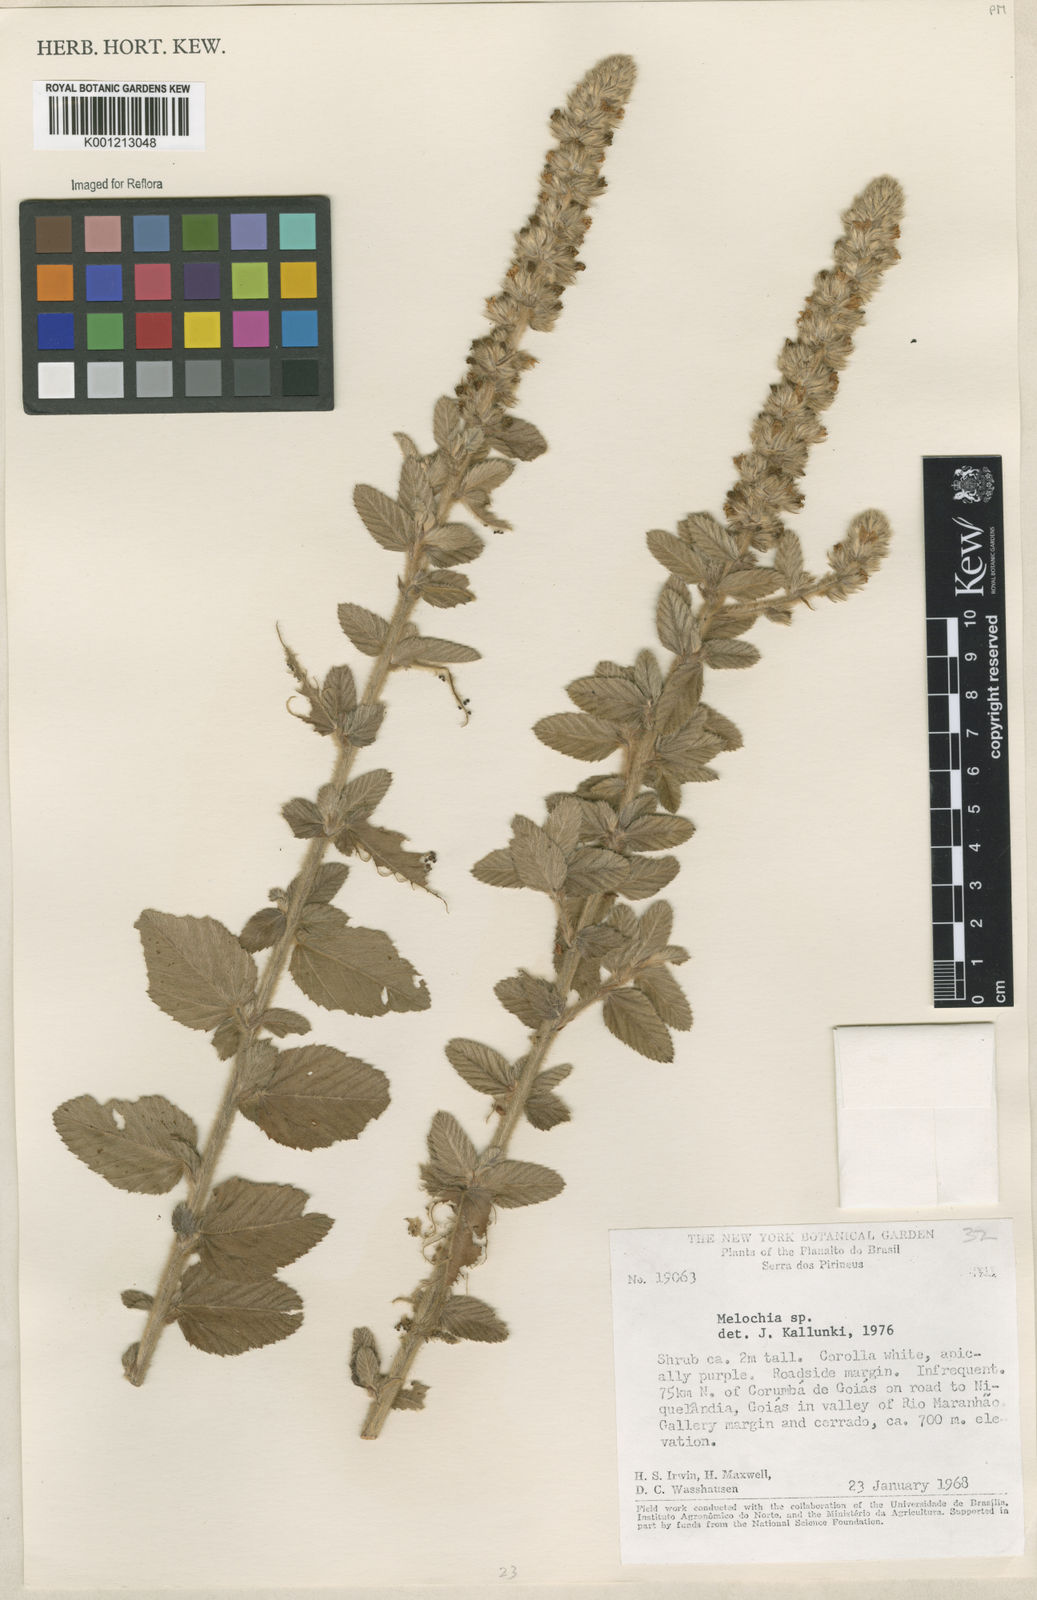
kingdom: Plantae
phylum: Tracheophyta
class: Magnoliopsida
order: Malvales
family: Malvaceae
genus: Melochia
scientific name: Melochia
